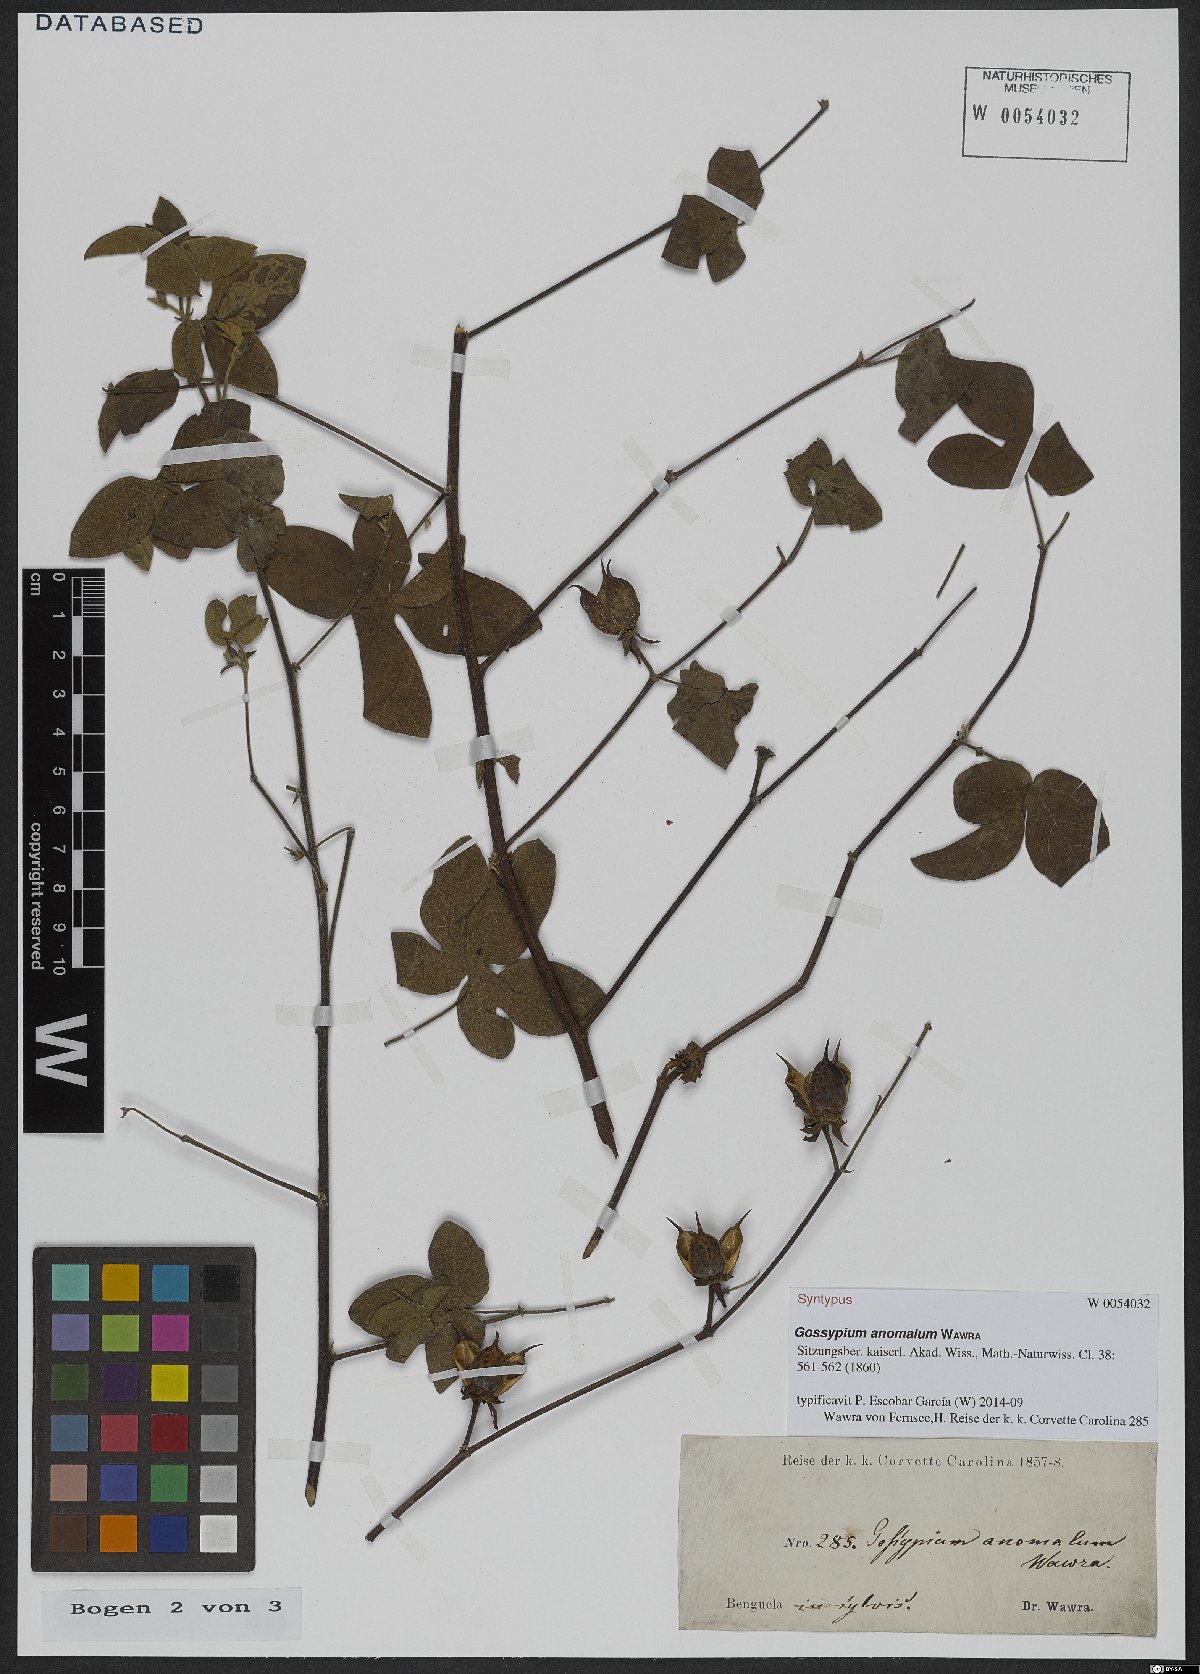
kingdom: Plantae
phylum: Tracheophyta
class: Magnoliopsida
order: Malvales
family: Malvaceae
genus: Gossypium
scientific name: Gossypium anomalum
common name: African wild cotton
